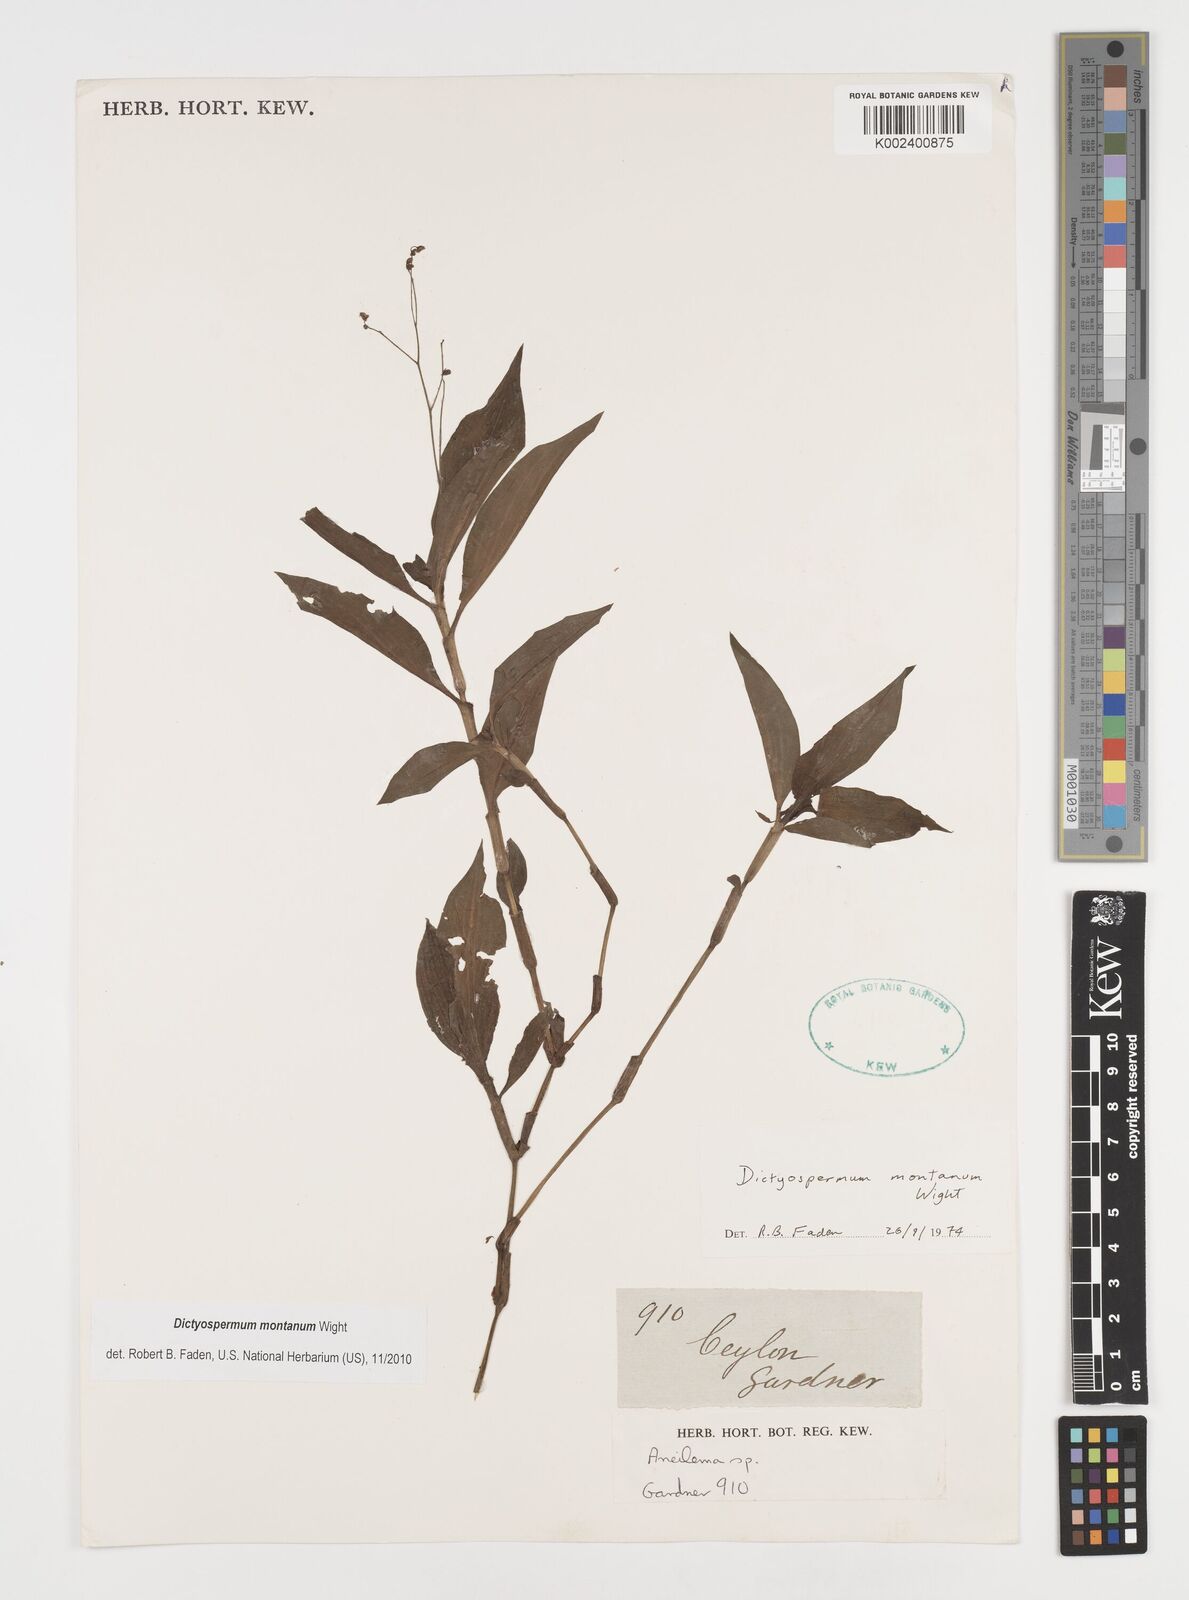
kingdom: Plantae
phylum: Tracheophyta
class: Liliopsida
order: Commelinales
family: Commelinaceae
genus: Dictyospermum
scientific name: Dictyospermum montanum
